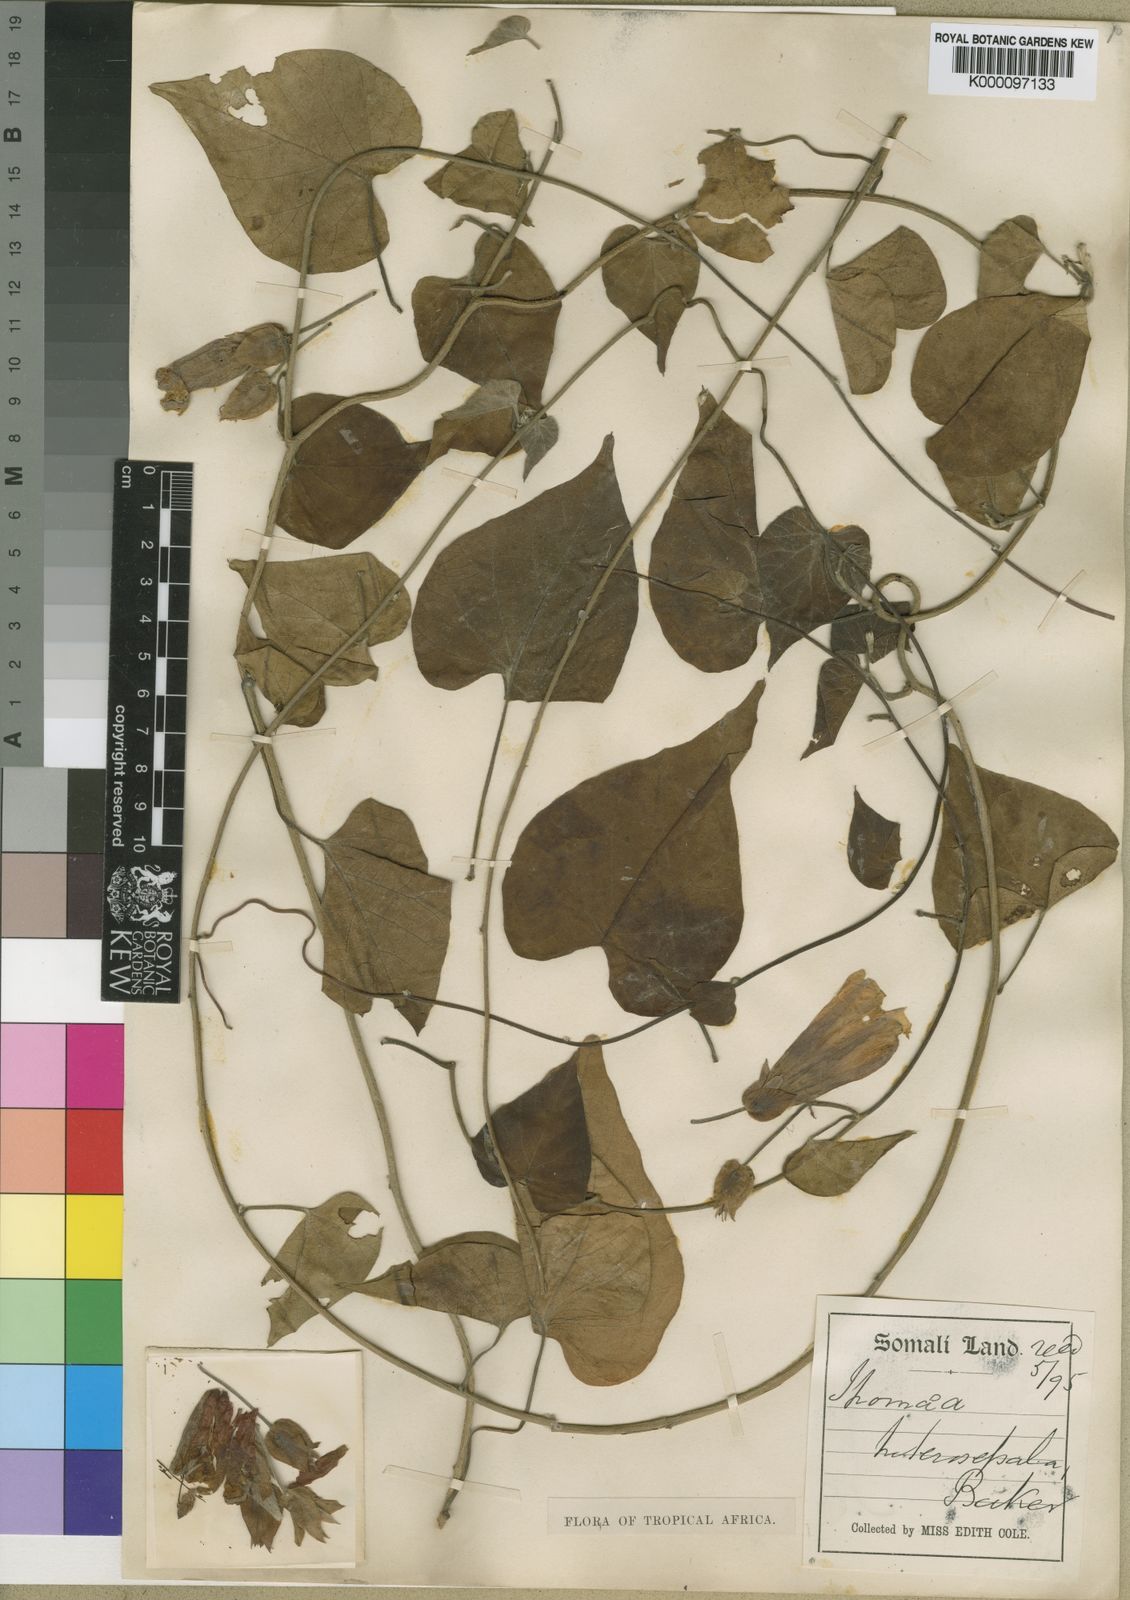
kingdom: Plantae
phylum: Tracheophyta
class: Magnoliopsida
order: Solanales
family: Convolvulaceae
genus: Ipomoea
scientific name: Ipomoea heterosepala
